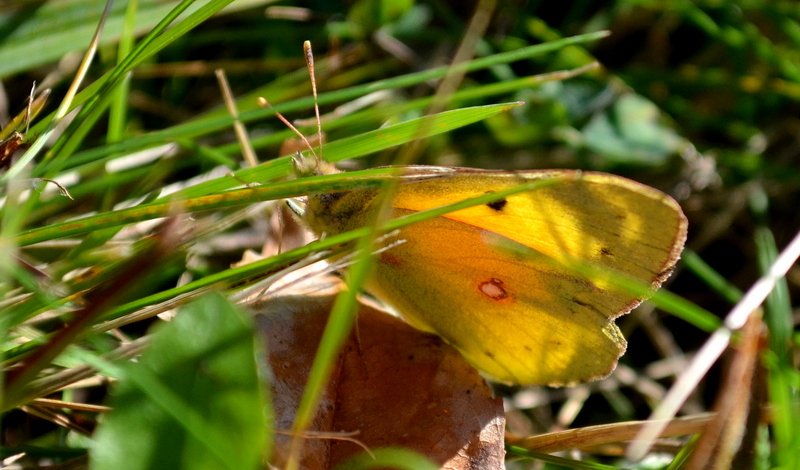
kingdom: Animalia
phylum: Arthropoda
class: Insecta
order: Lepidoptera
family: Pieridae
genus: Colias
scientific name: Colias eurytheme
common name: Orange Sulphur
